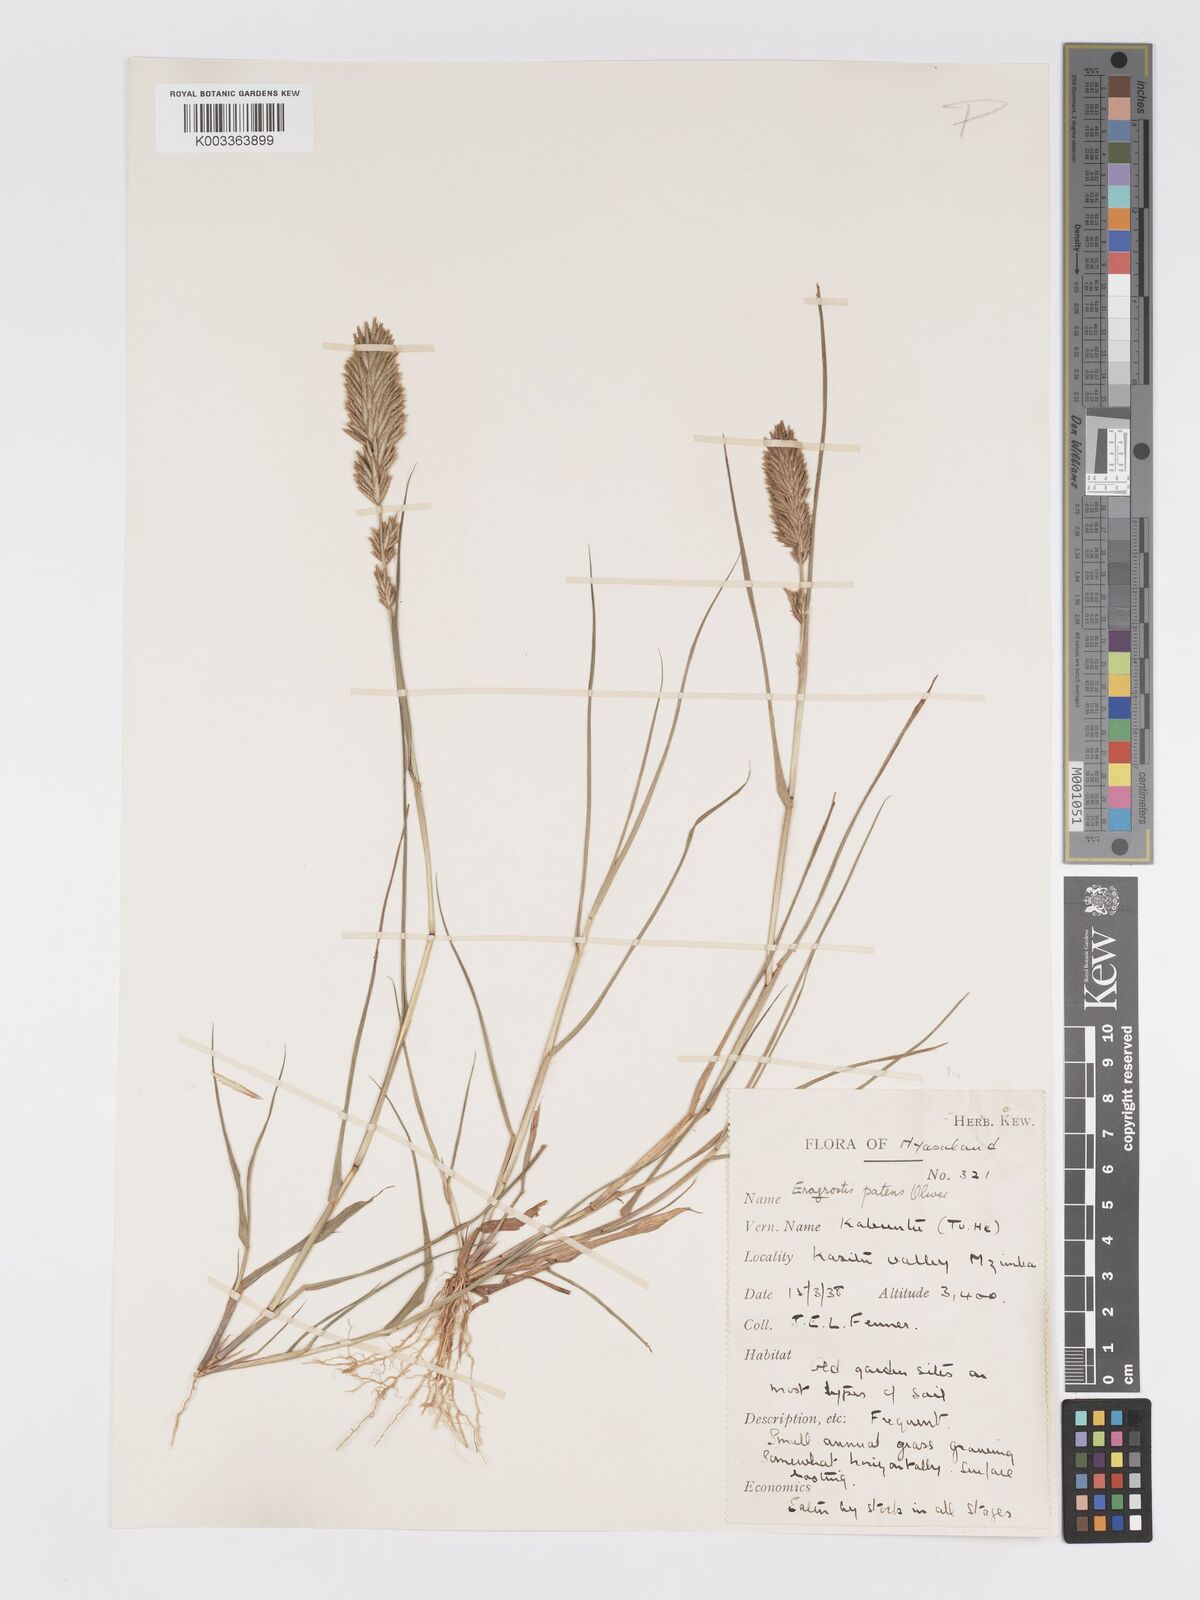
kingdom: Plantae
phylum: Tracheophyta
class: Liliopsida
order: Poales
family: Poaceae
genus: Eragrostis
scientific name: Eragrostis patens
